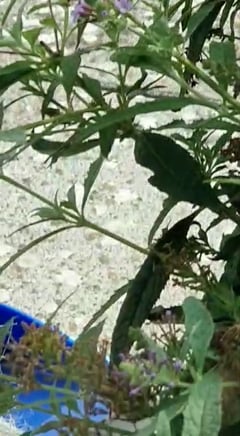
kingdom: Animalia
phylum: Arthropoda
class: Insecta
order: Lepidoptera
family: Sphingidae
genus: Macroglossum
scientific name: Macroglossum stellatarum
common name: Humming-bird hawk-moth
